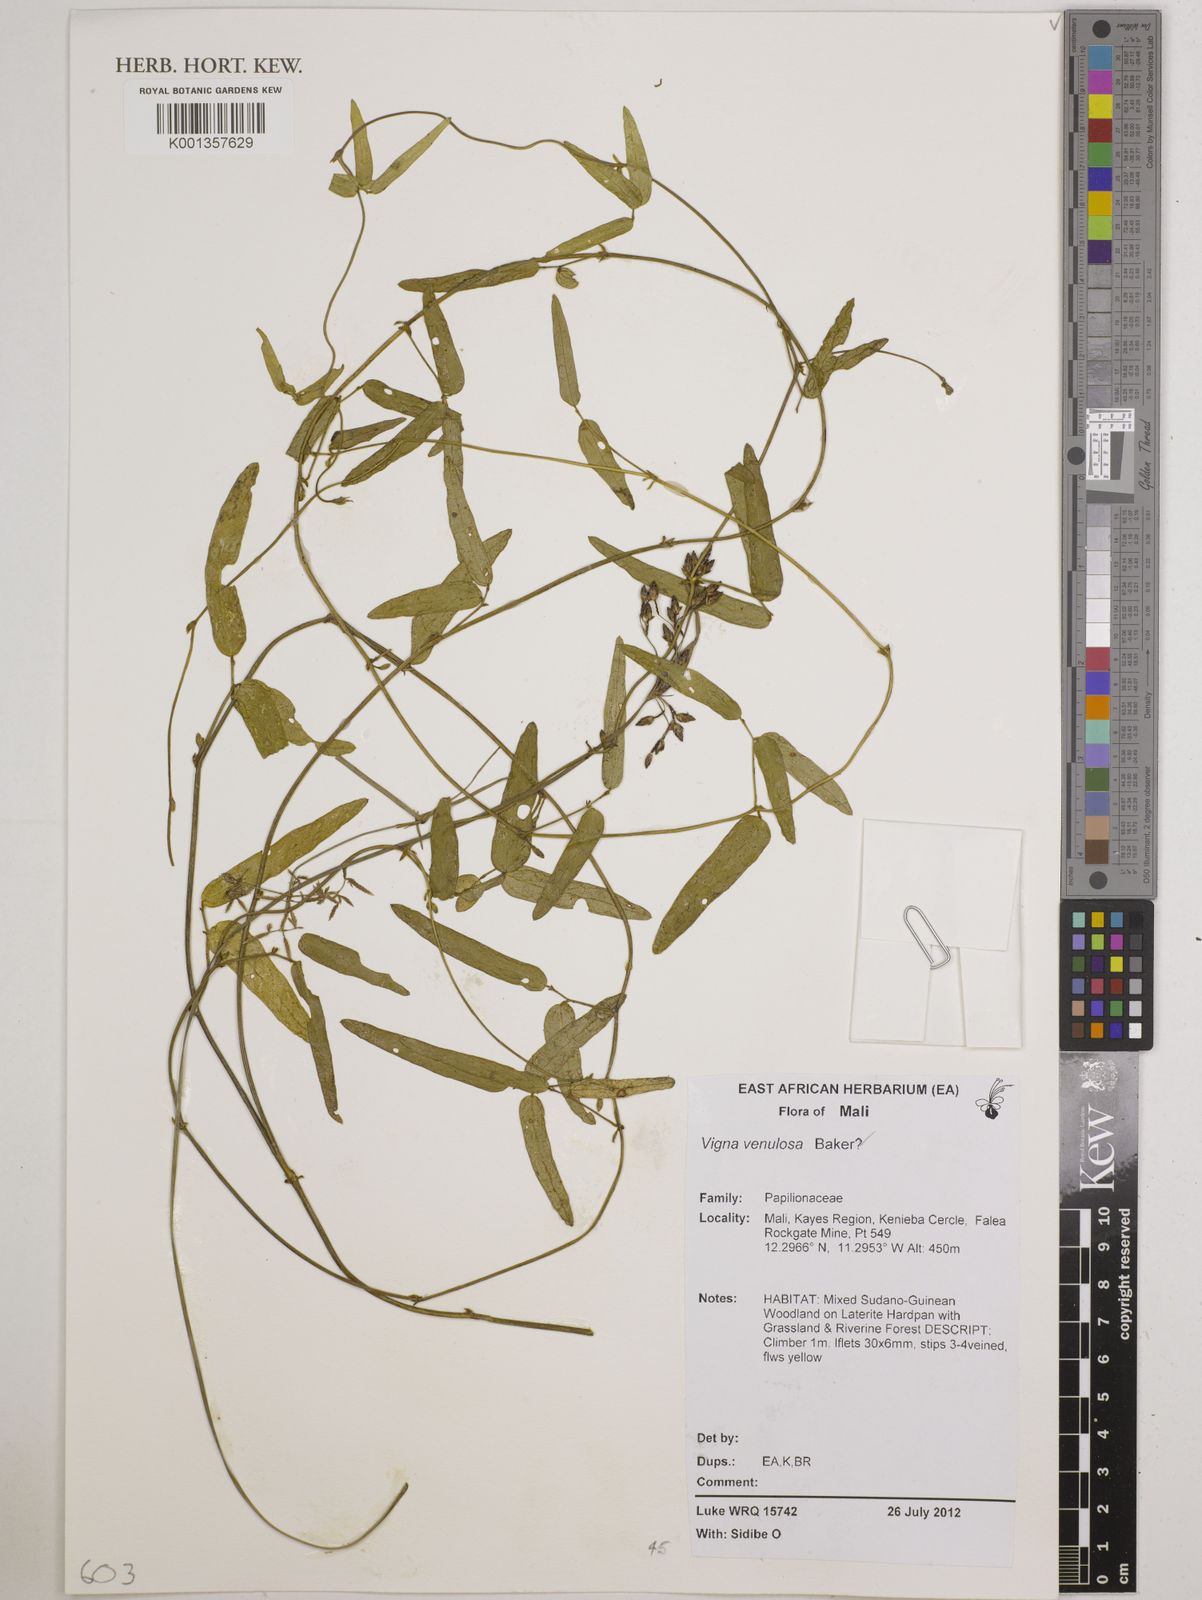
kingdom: Plantae
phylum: Tracheophyta
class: Magnoliopsida
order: Fabales
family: Fabaceae
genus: Vigna
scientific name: Vigna venulosa
